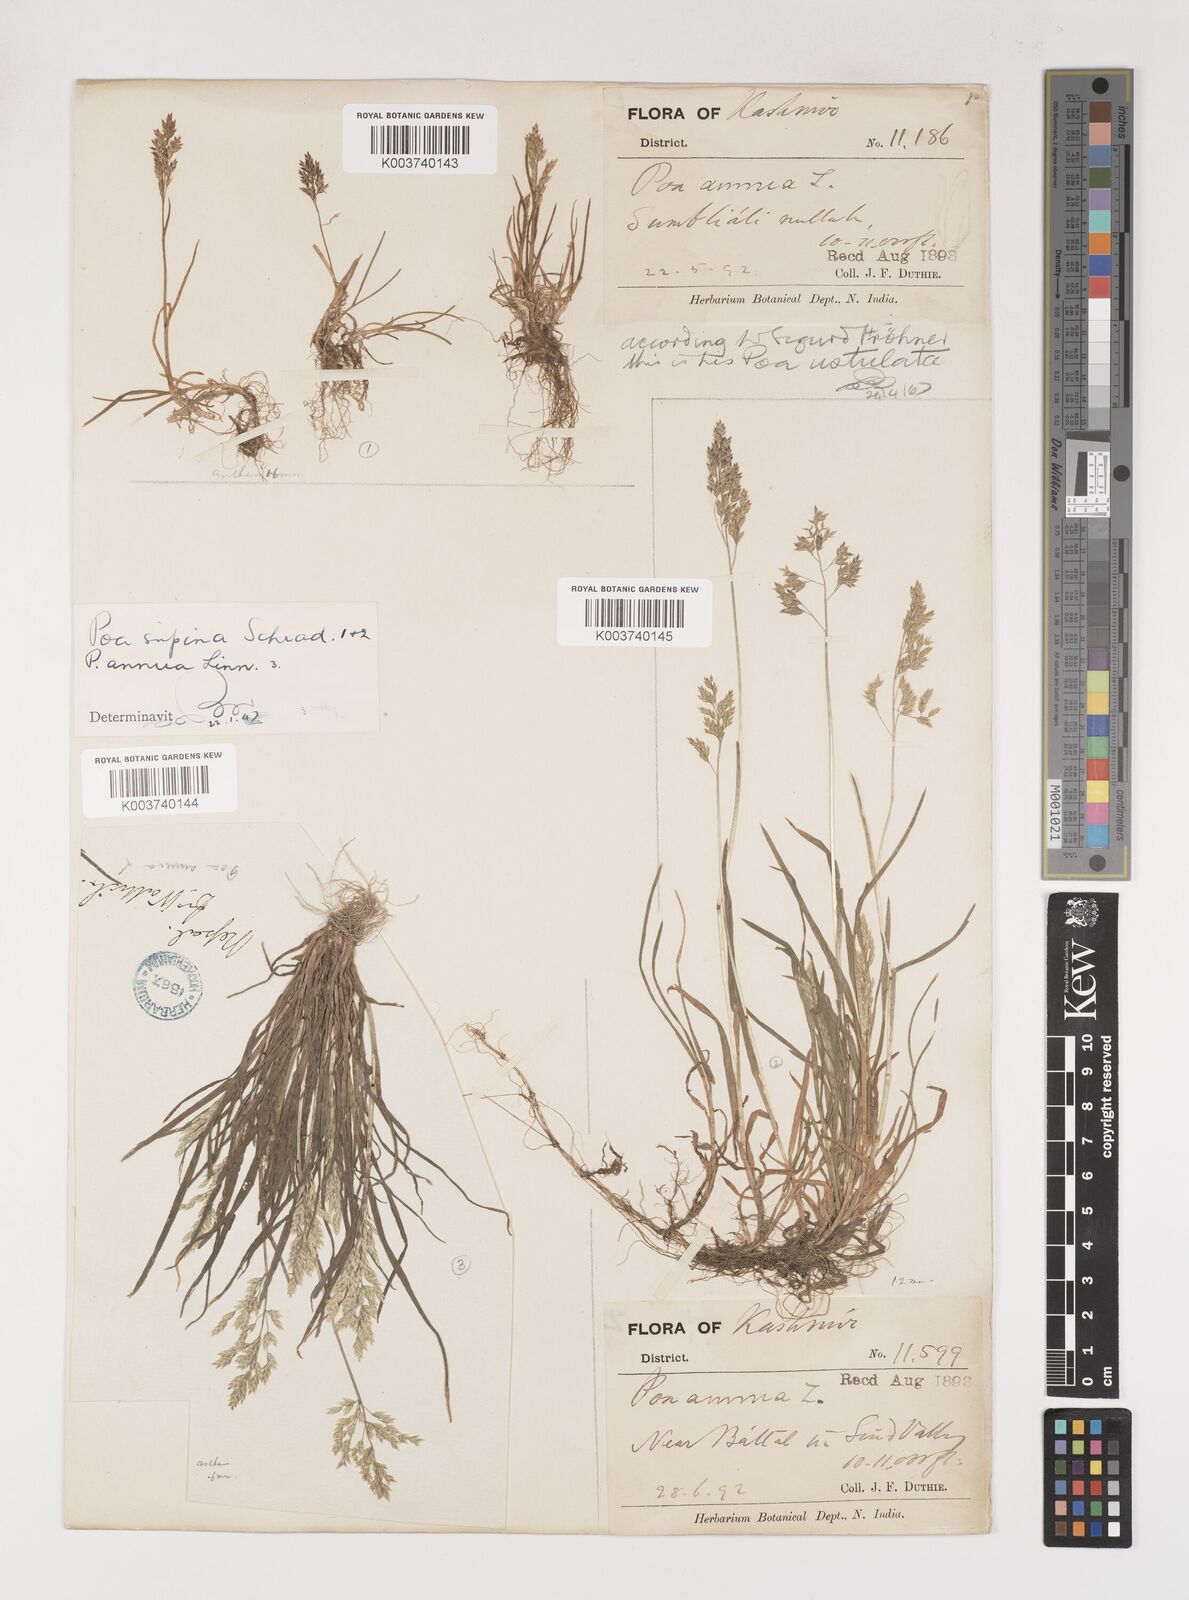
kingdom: Plantae
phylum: Tracheophyta
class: Liliopsida
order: Poales
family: Poaceae
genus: Poa
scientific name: Poa supina
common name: Supina bluegrass
